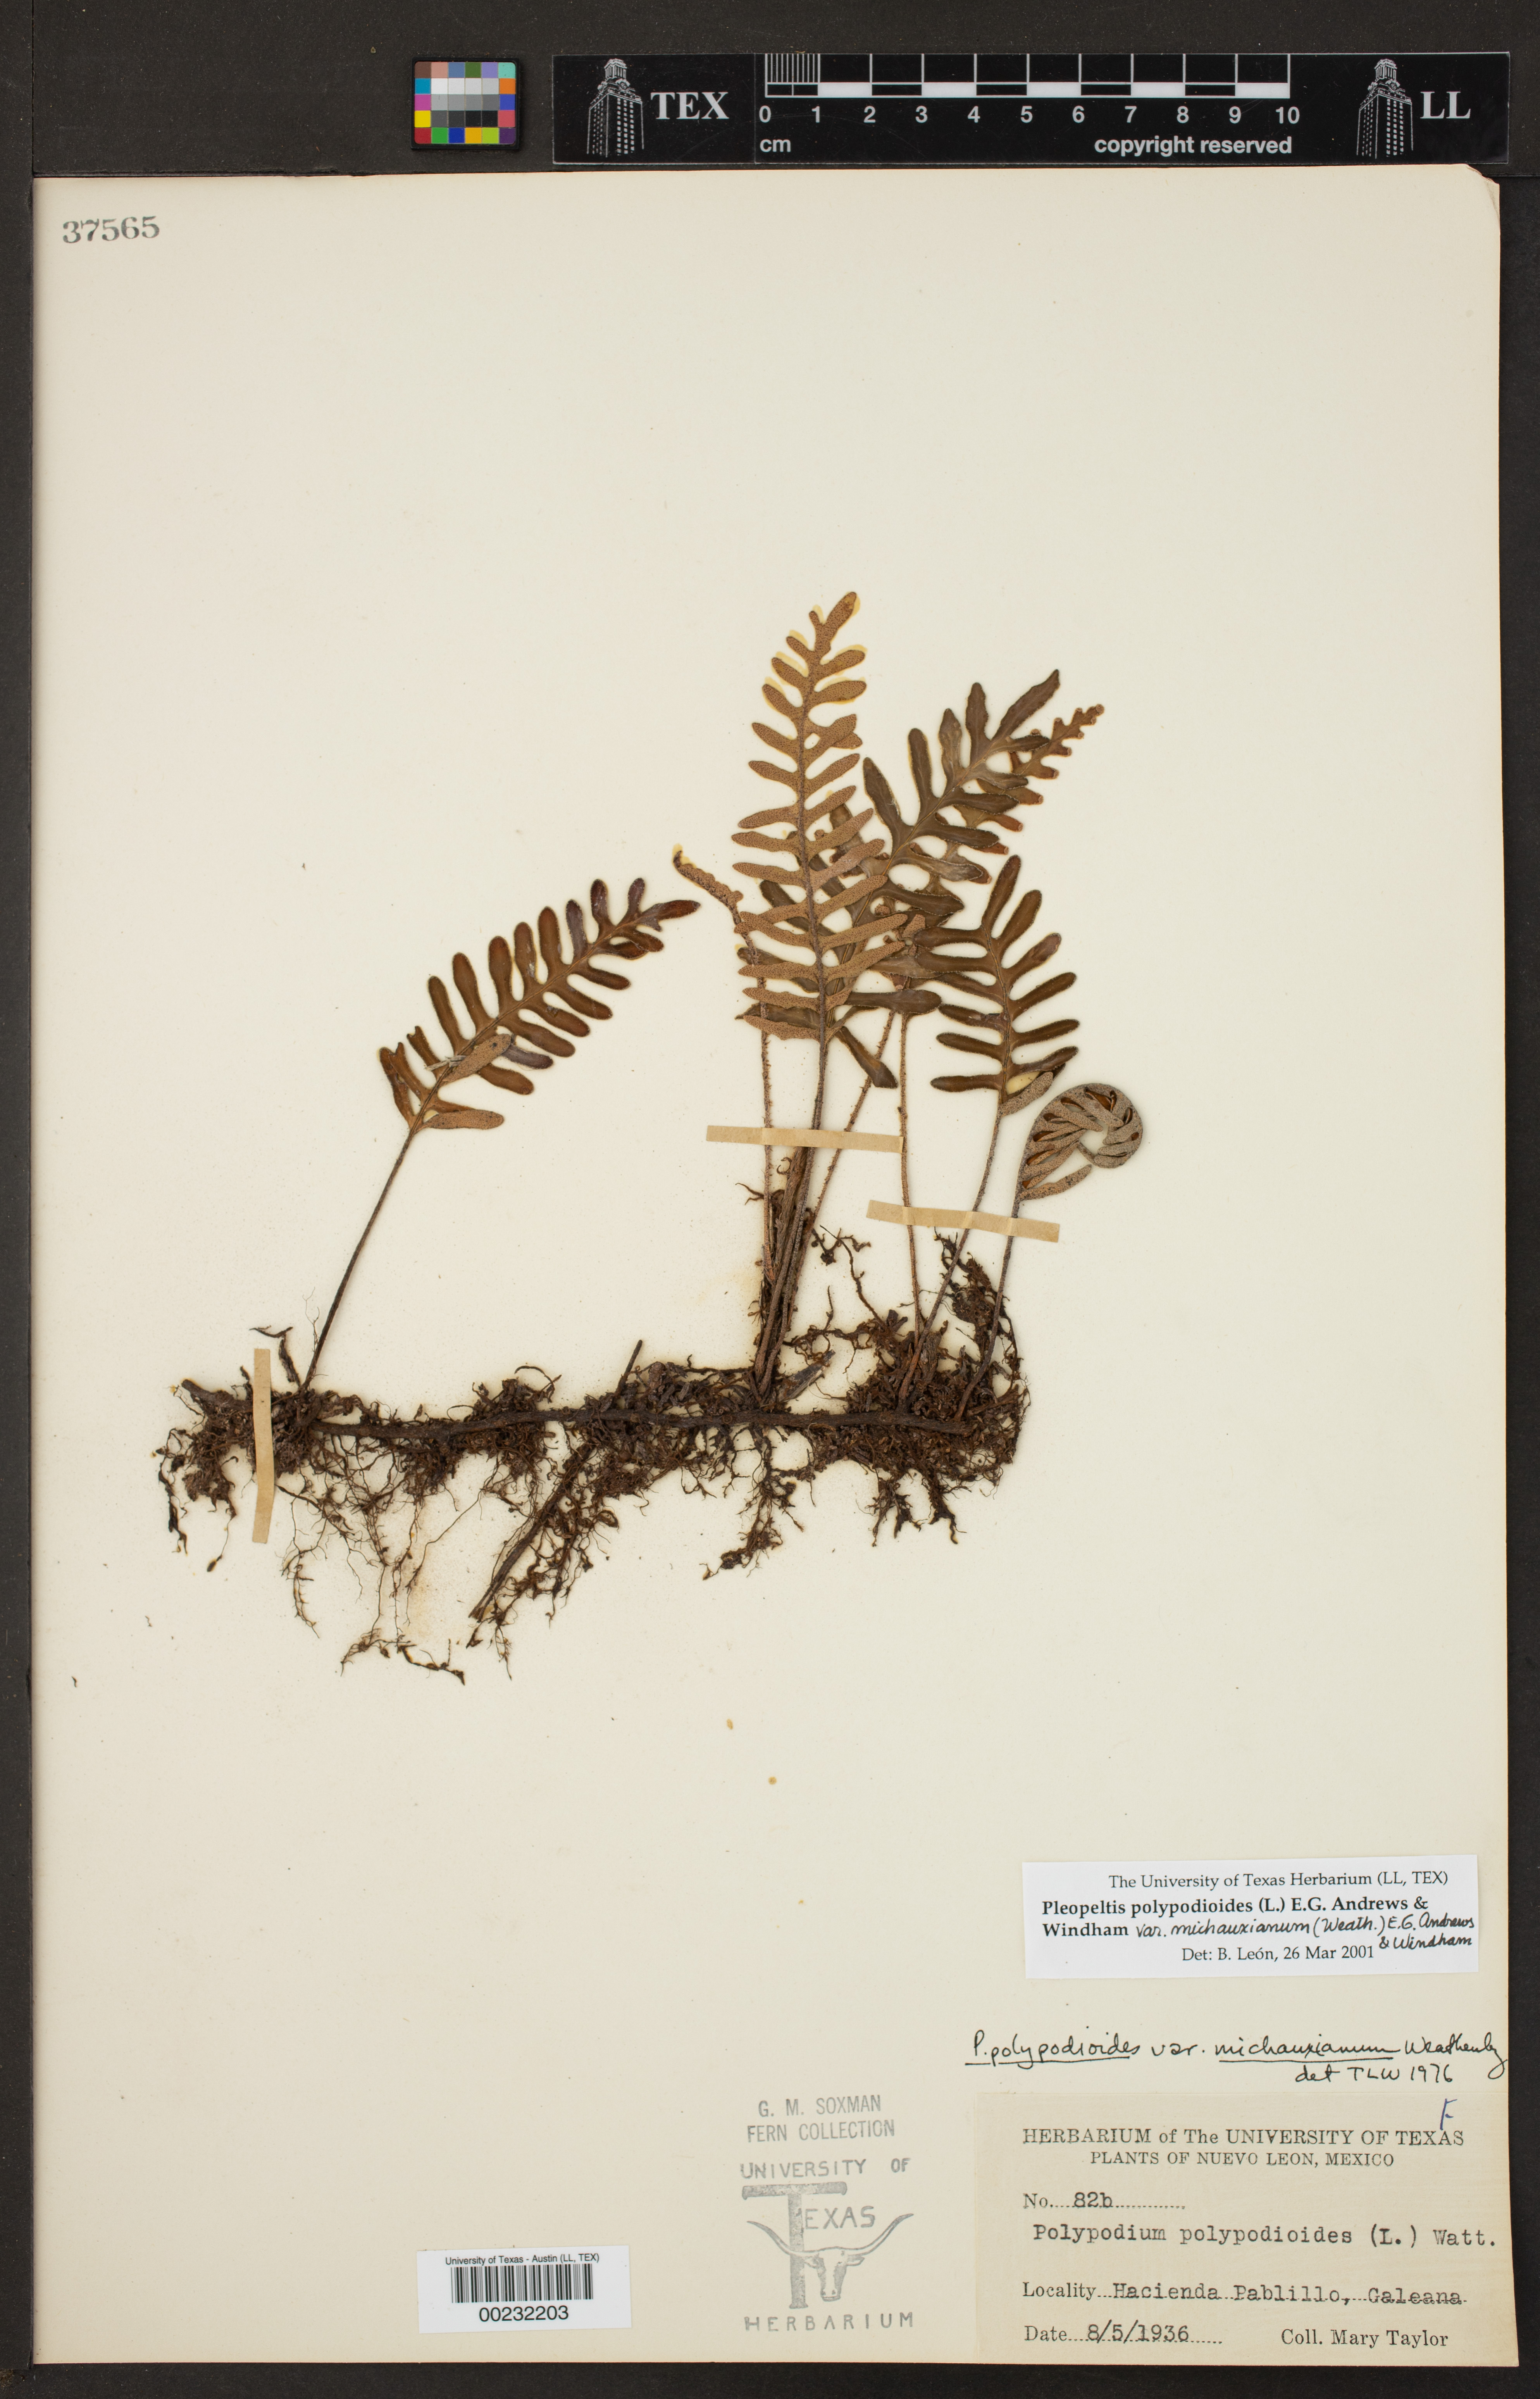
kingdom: Plantae
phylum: Tracheophyta
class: Polypodiopsida
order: Polypodiales
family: Polypodiaceae
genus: Pleopeltis
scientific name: Pleopeltis michauxiana
